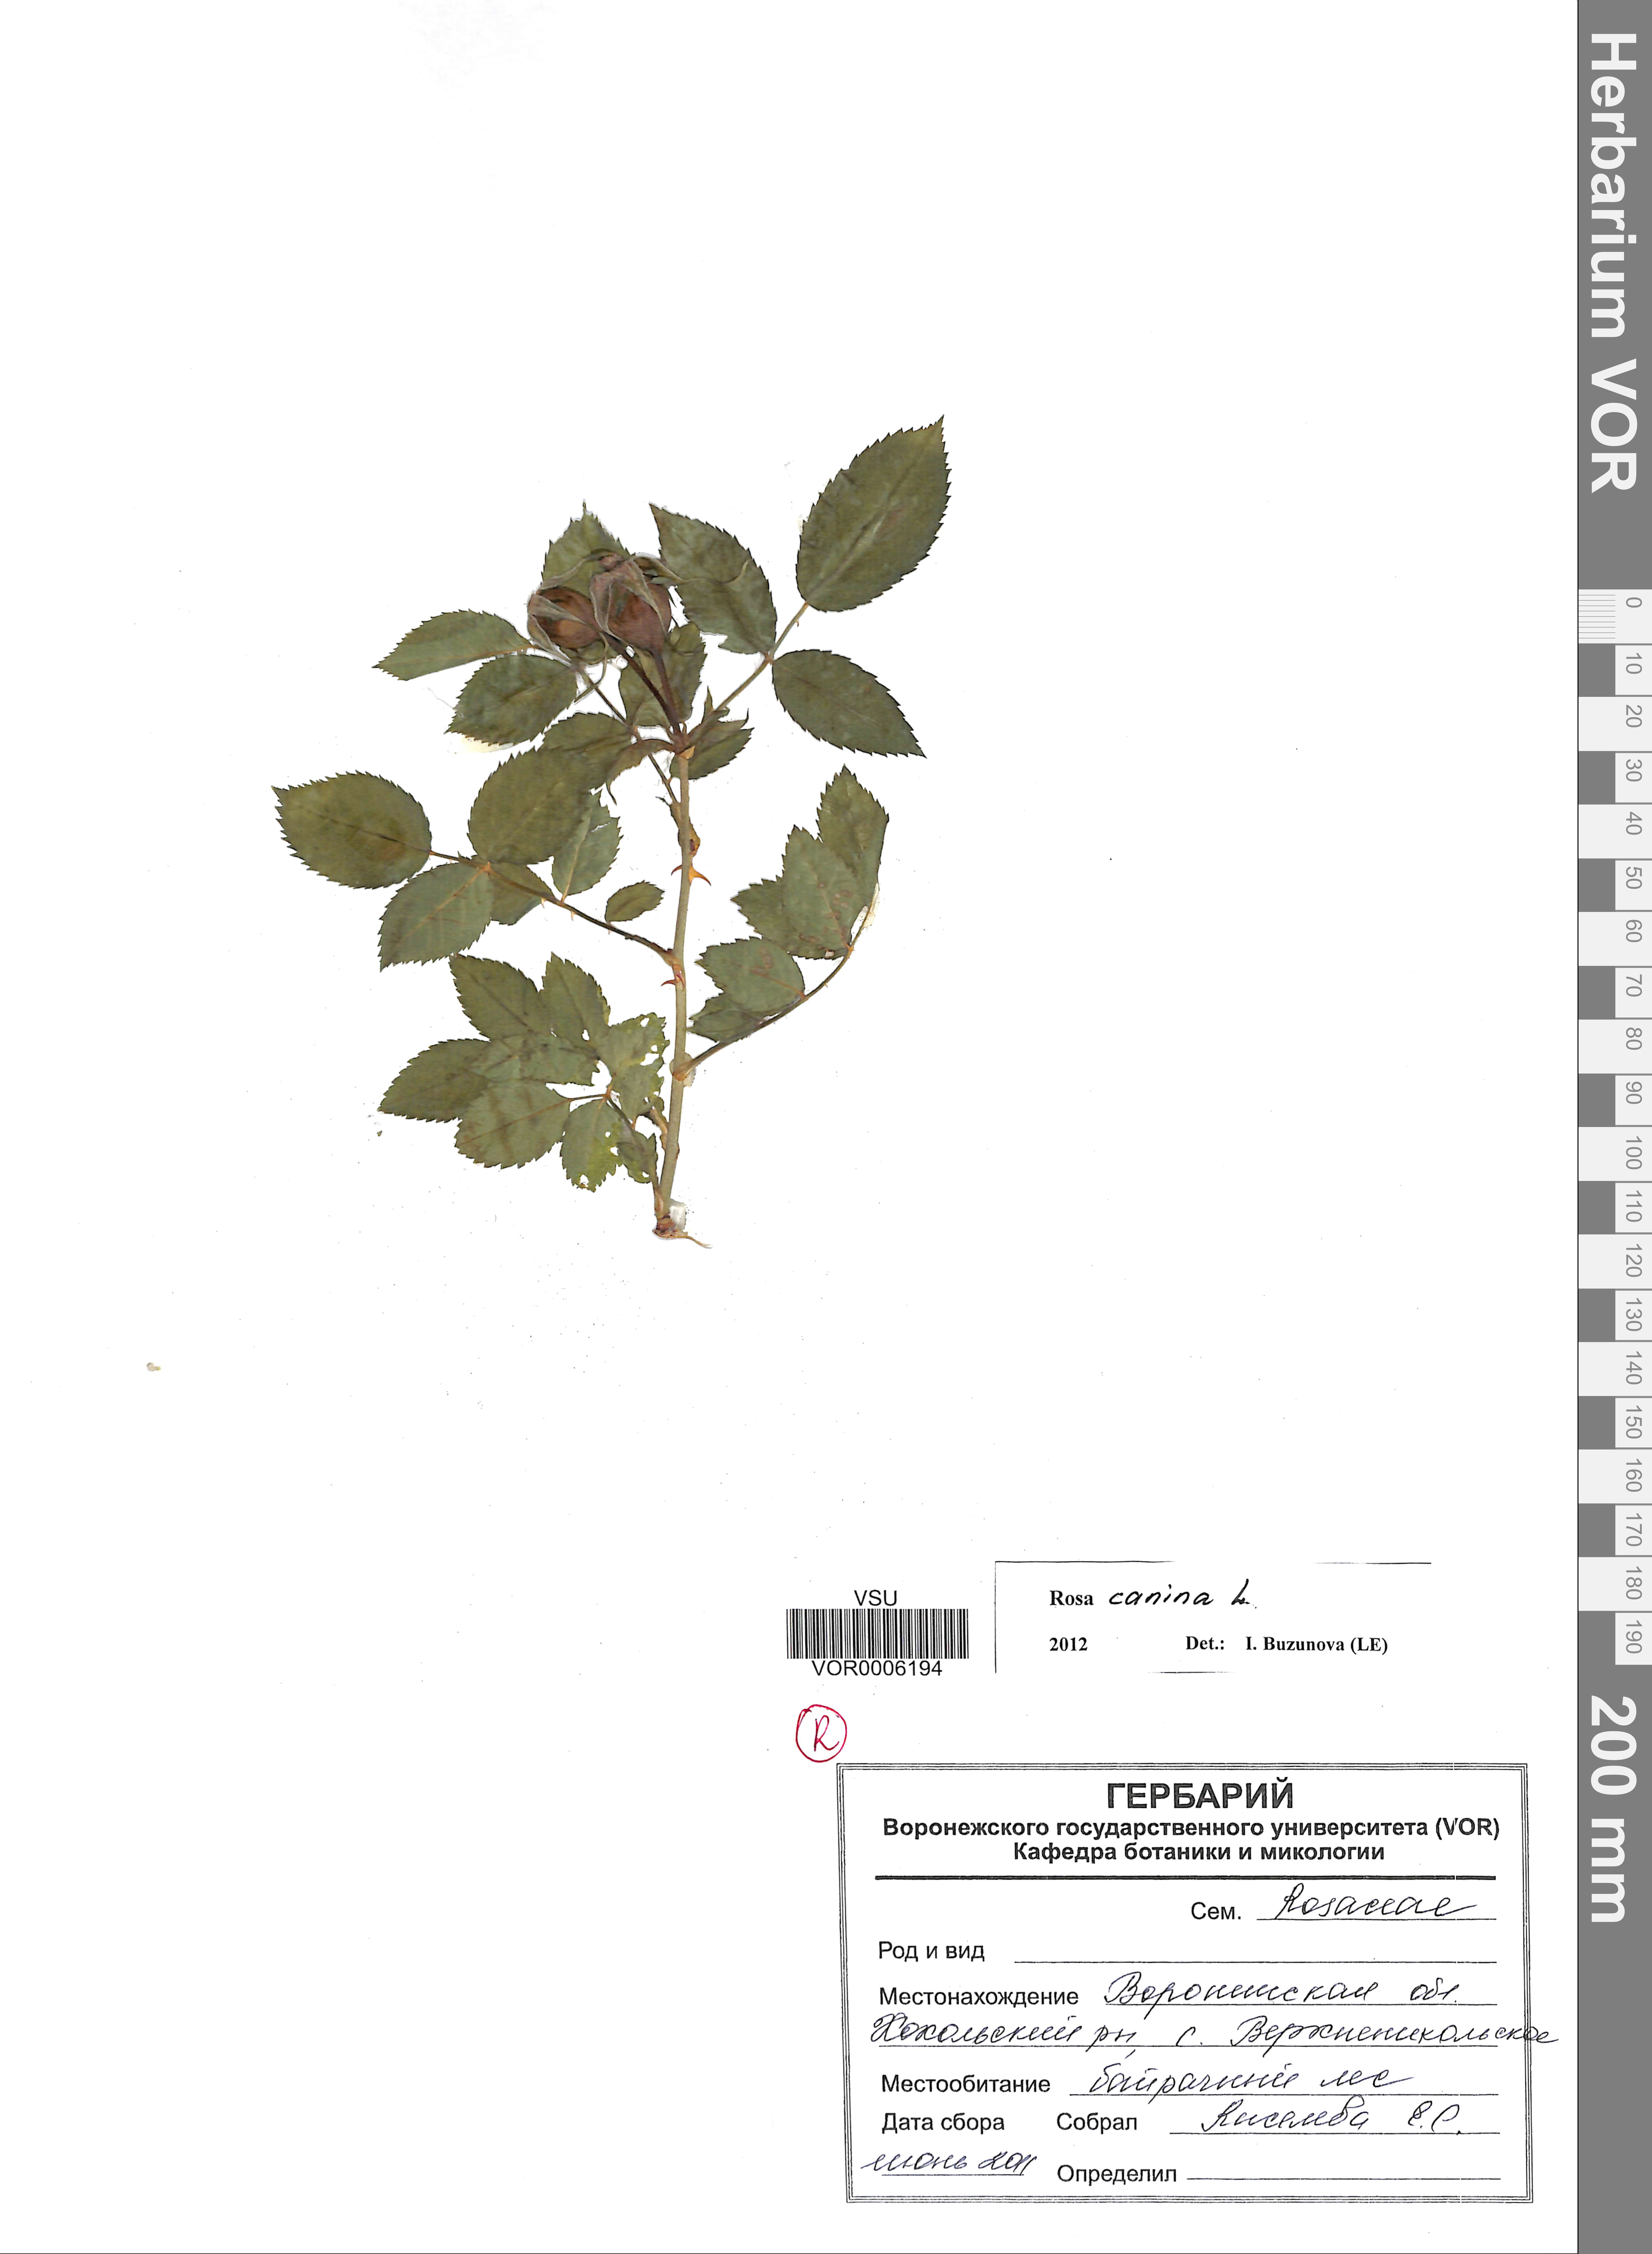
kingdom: Plantae
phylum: Tracheophyta
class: Magnoliopsida
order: Rosales
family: Rosaceae
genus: Rosa
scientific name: Rosa canina
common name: Dog rose
